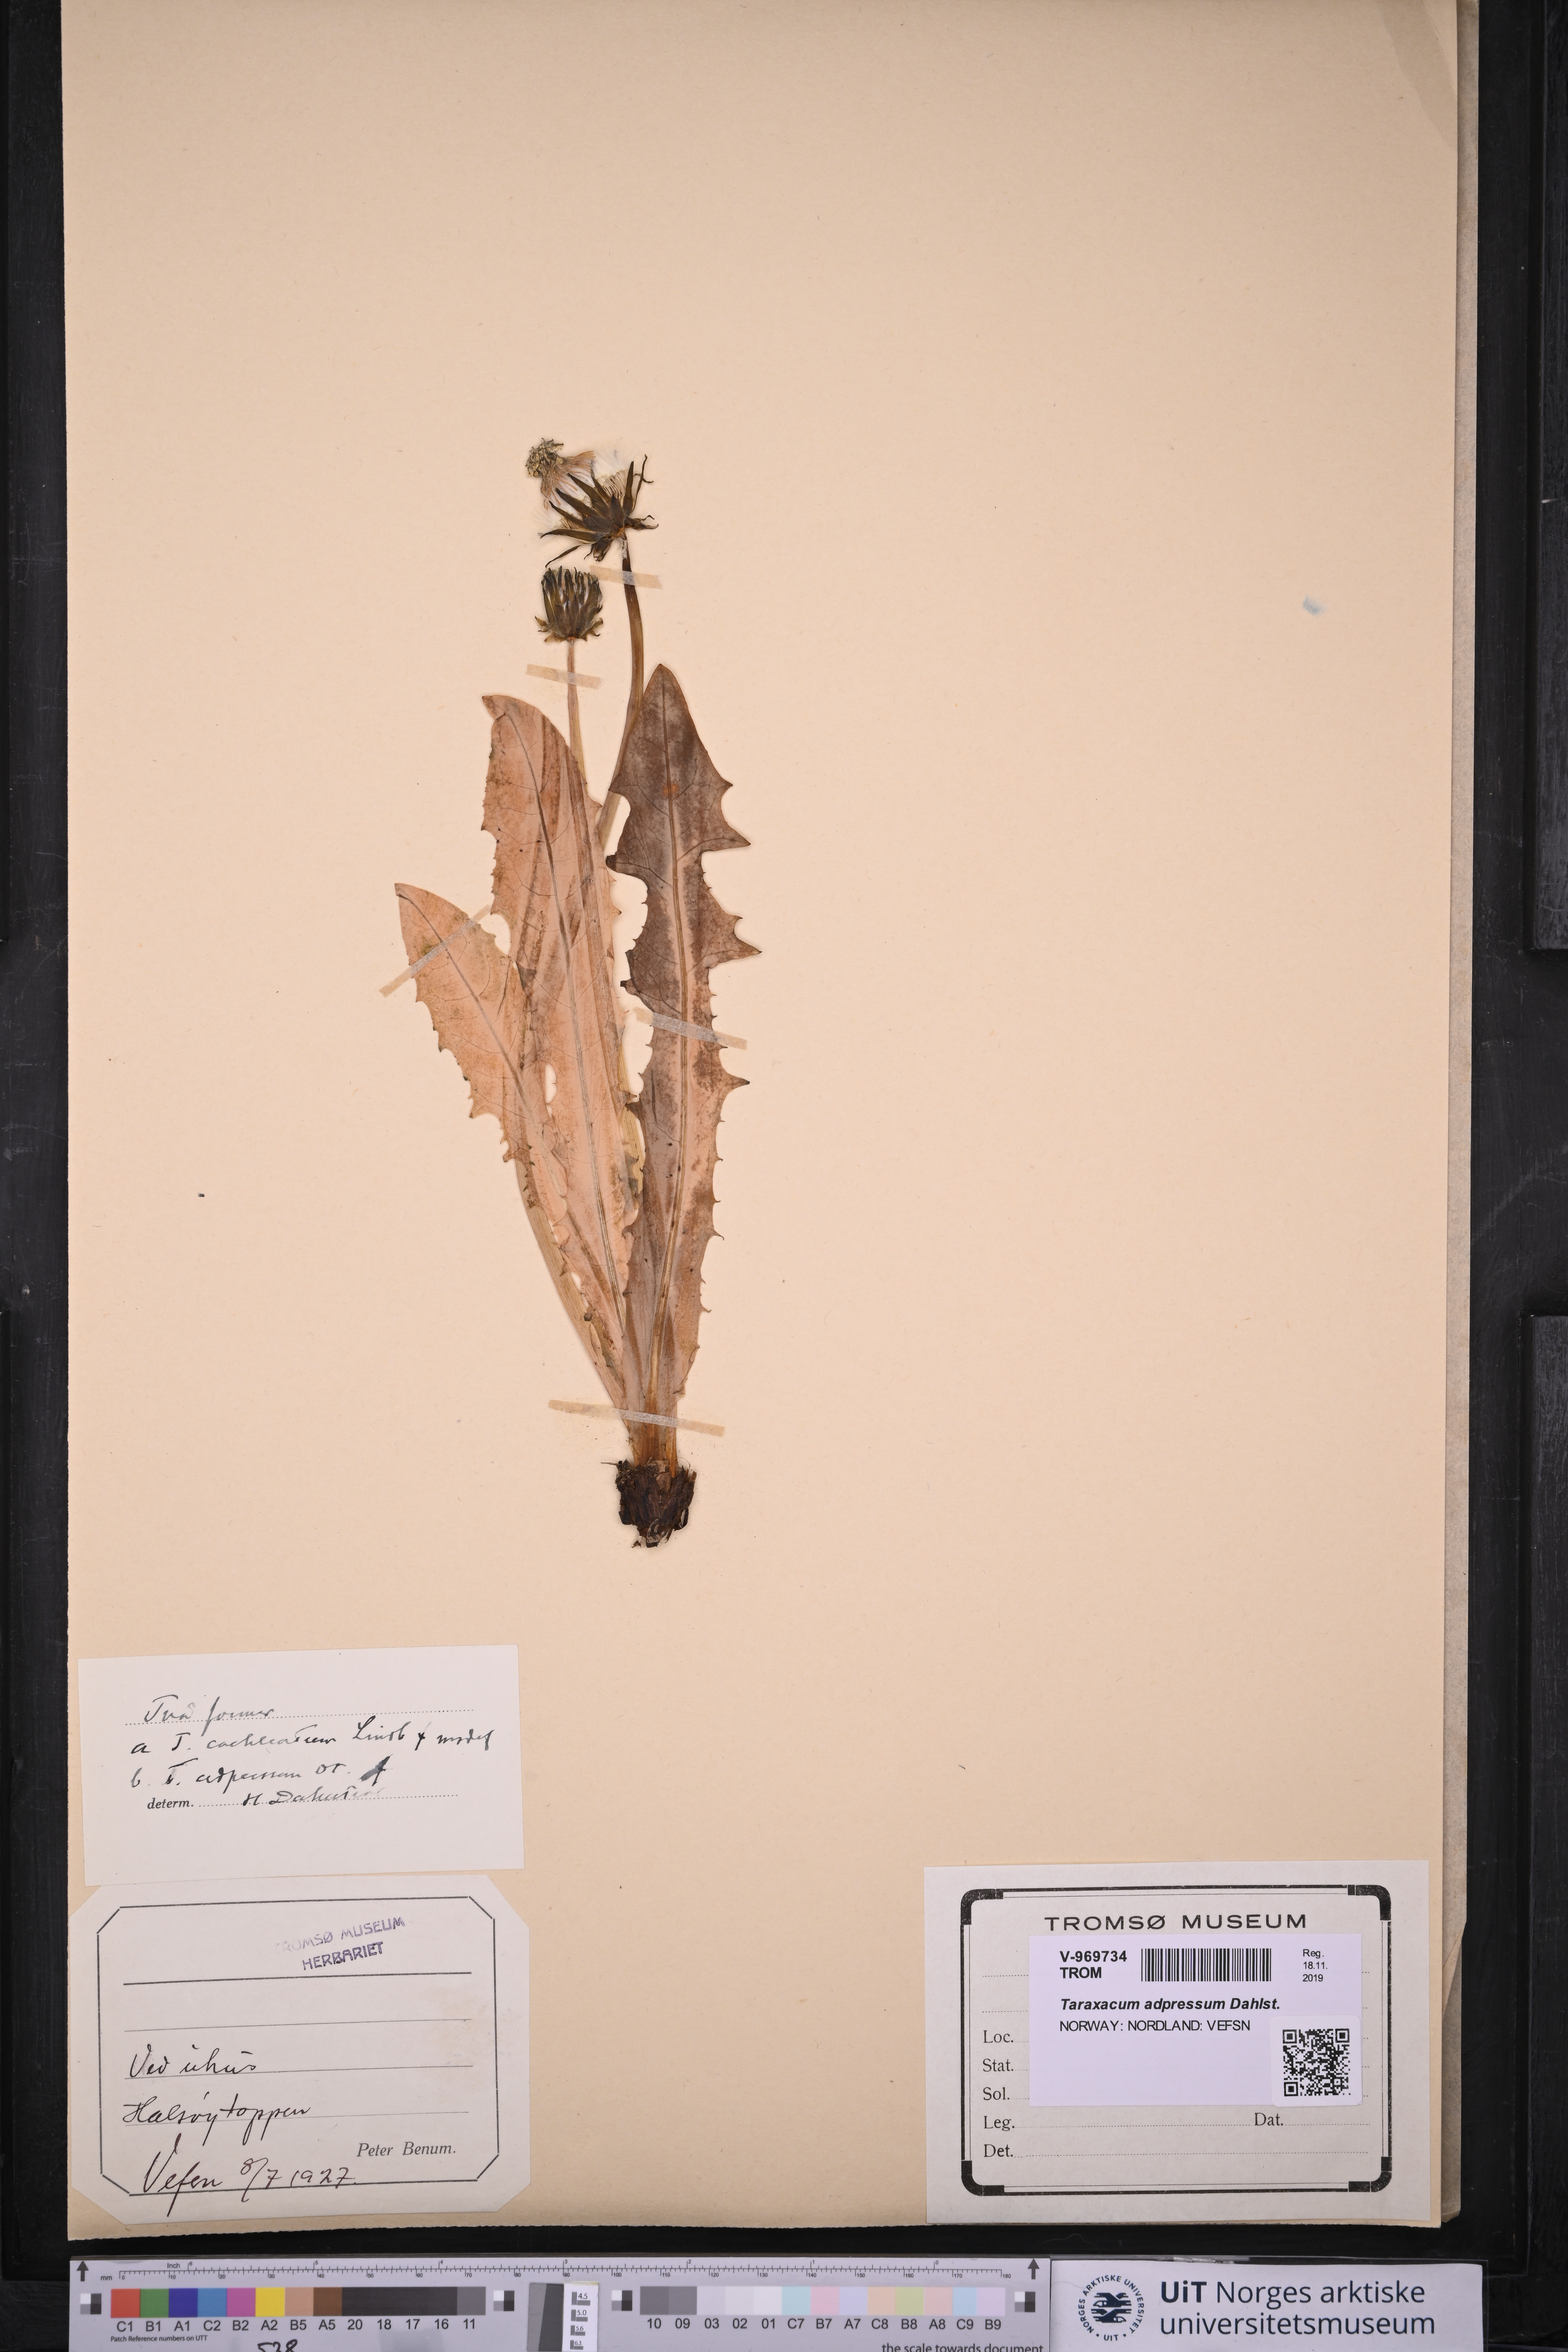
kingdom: Plantae
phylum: Tracheophyta
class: Magnoliopsida
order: Asterales
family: Asteraceae
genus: Taraxacum
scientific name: Taraxacum adpressum
